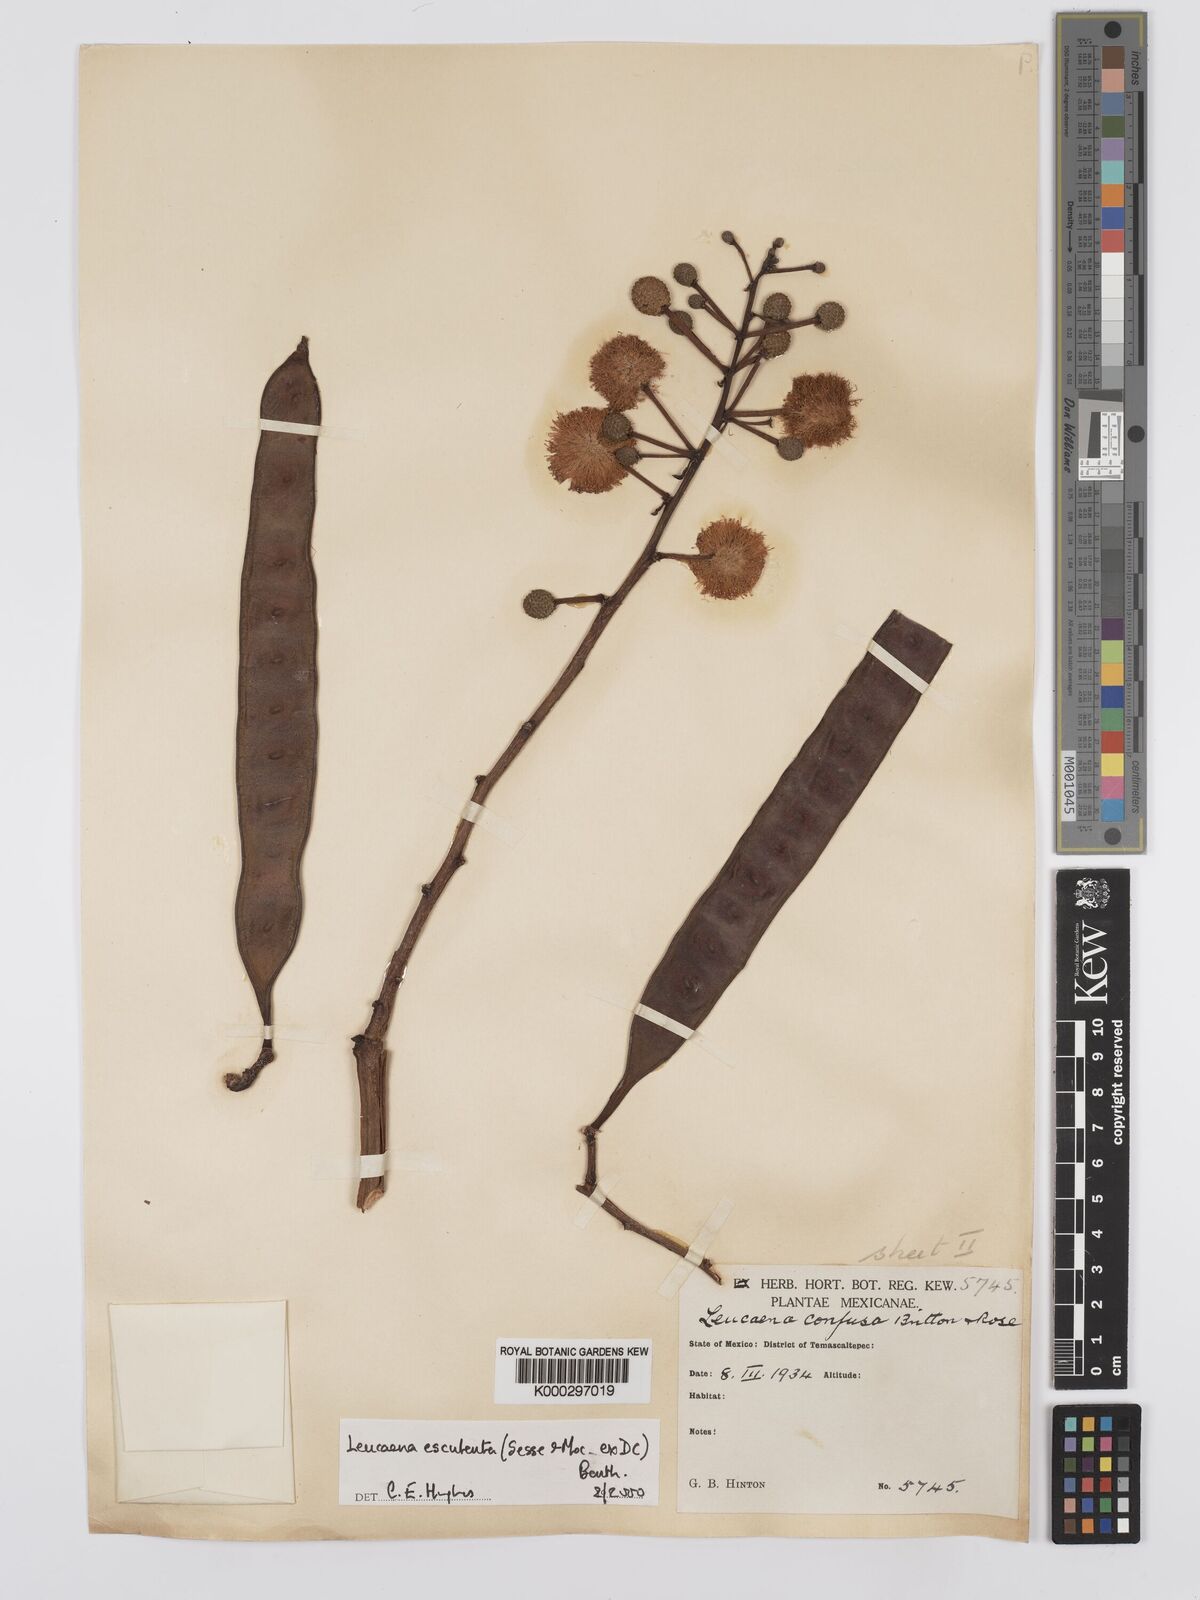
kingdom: Plantae
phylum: Tracheophyta
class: Magnoliopsida
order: Fabales
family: Fabaceae
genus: Leucaena
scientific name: Leucaena esculenta
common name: Guaje
